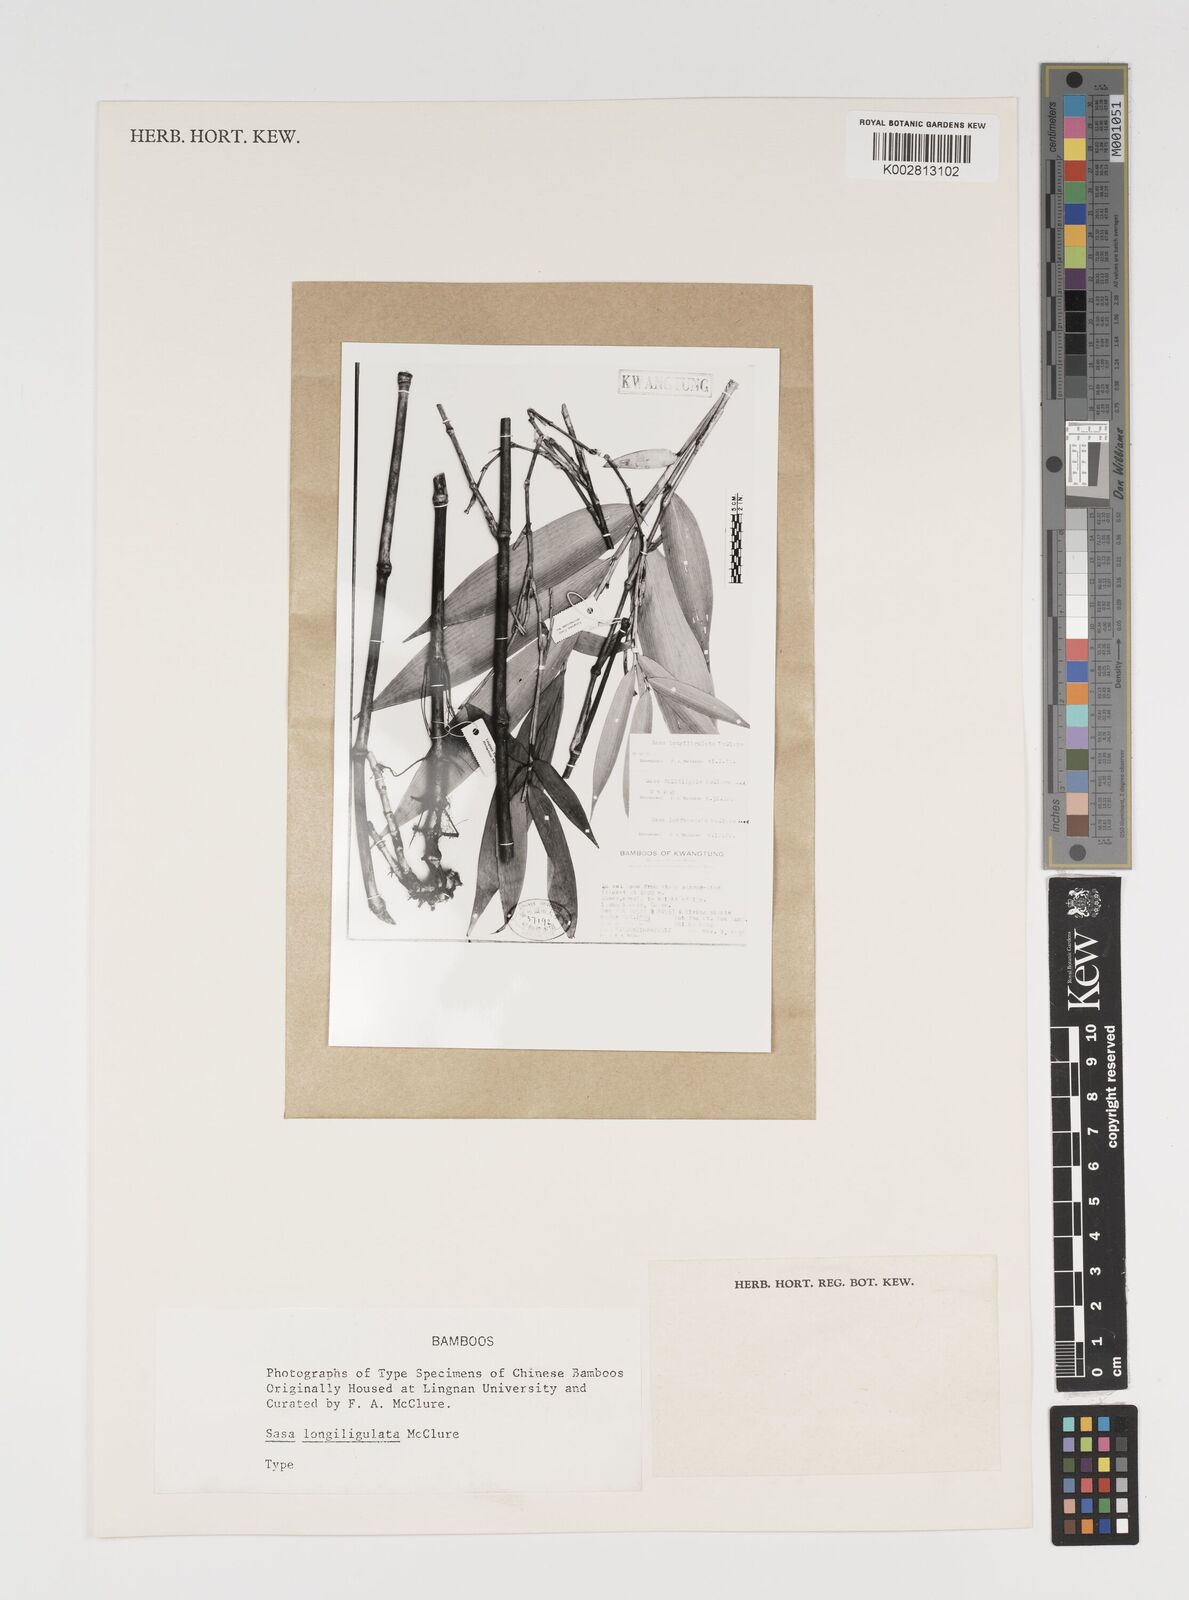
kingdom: Plantae
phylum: Tracheophyta
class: Liliopsida
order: Poales
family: Poaceae
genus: Sinosasa
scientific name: Sinosasa longiligulata
